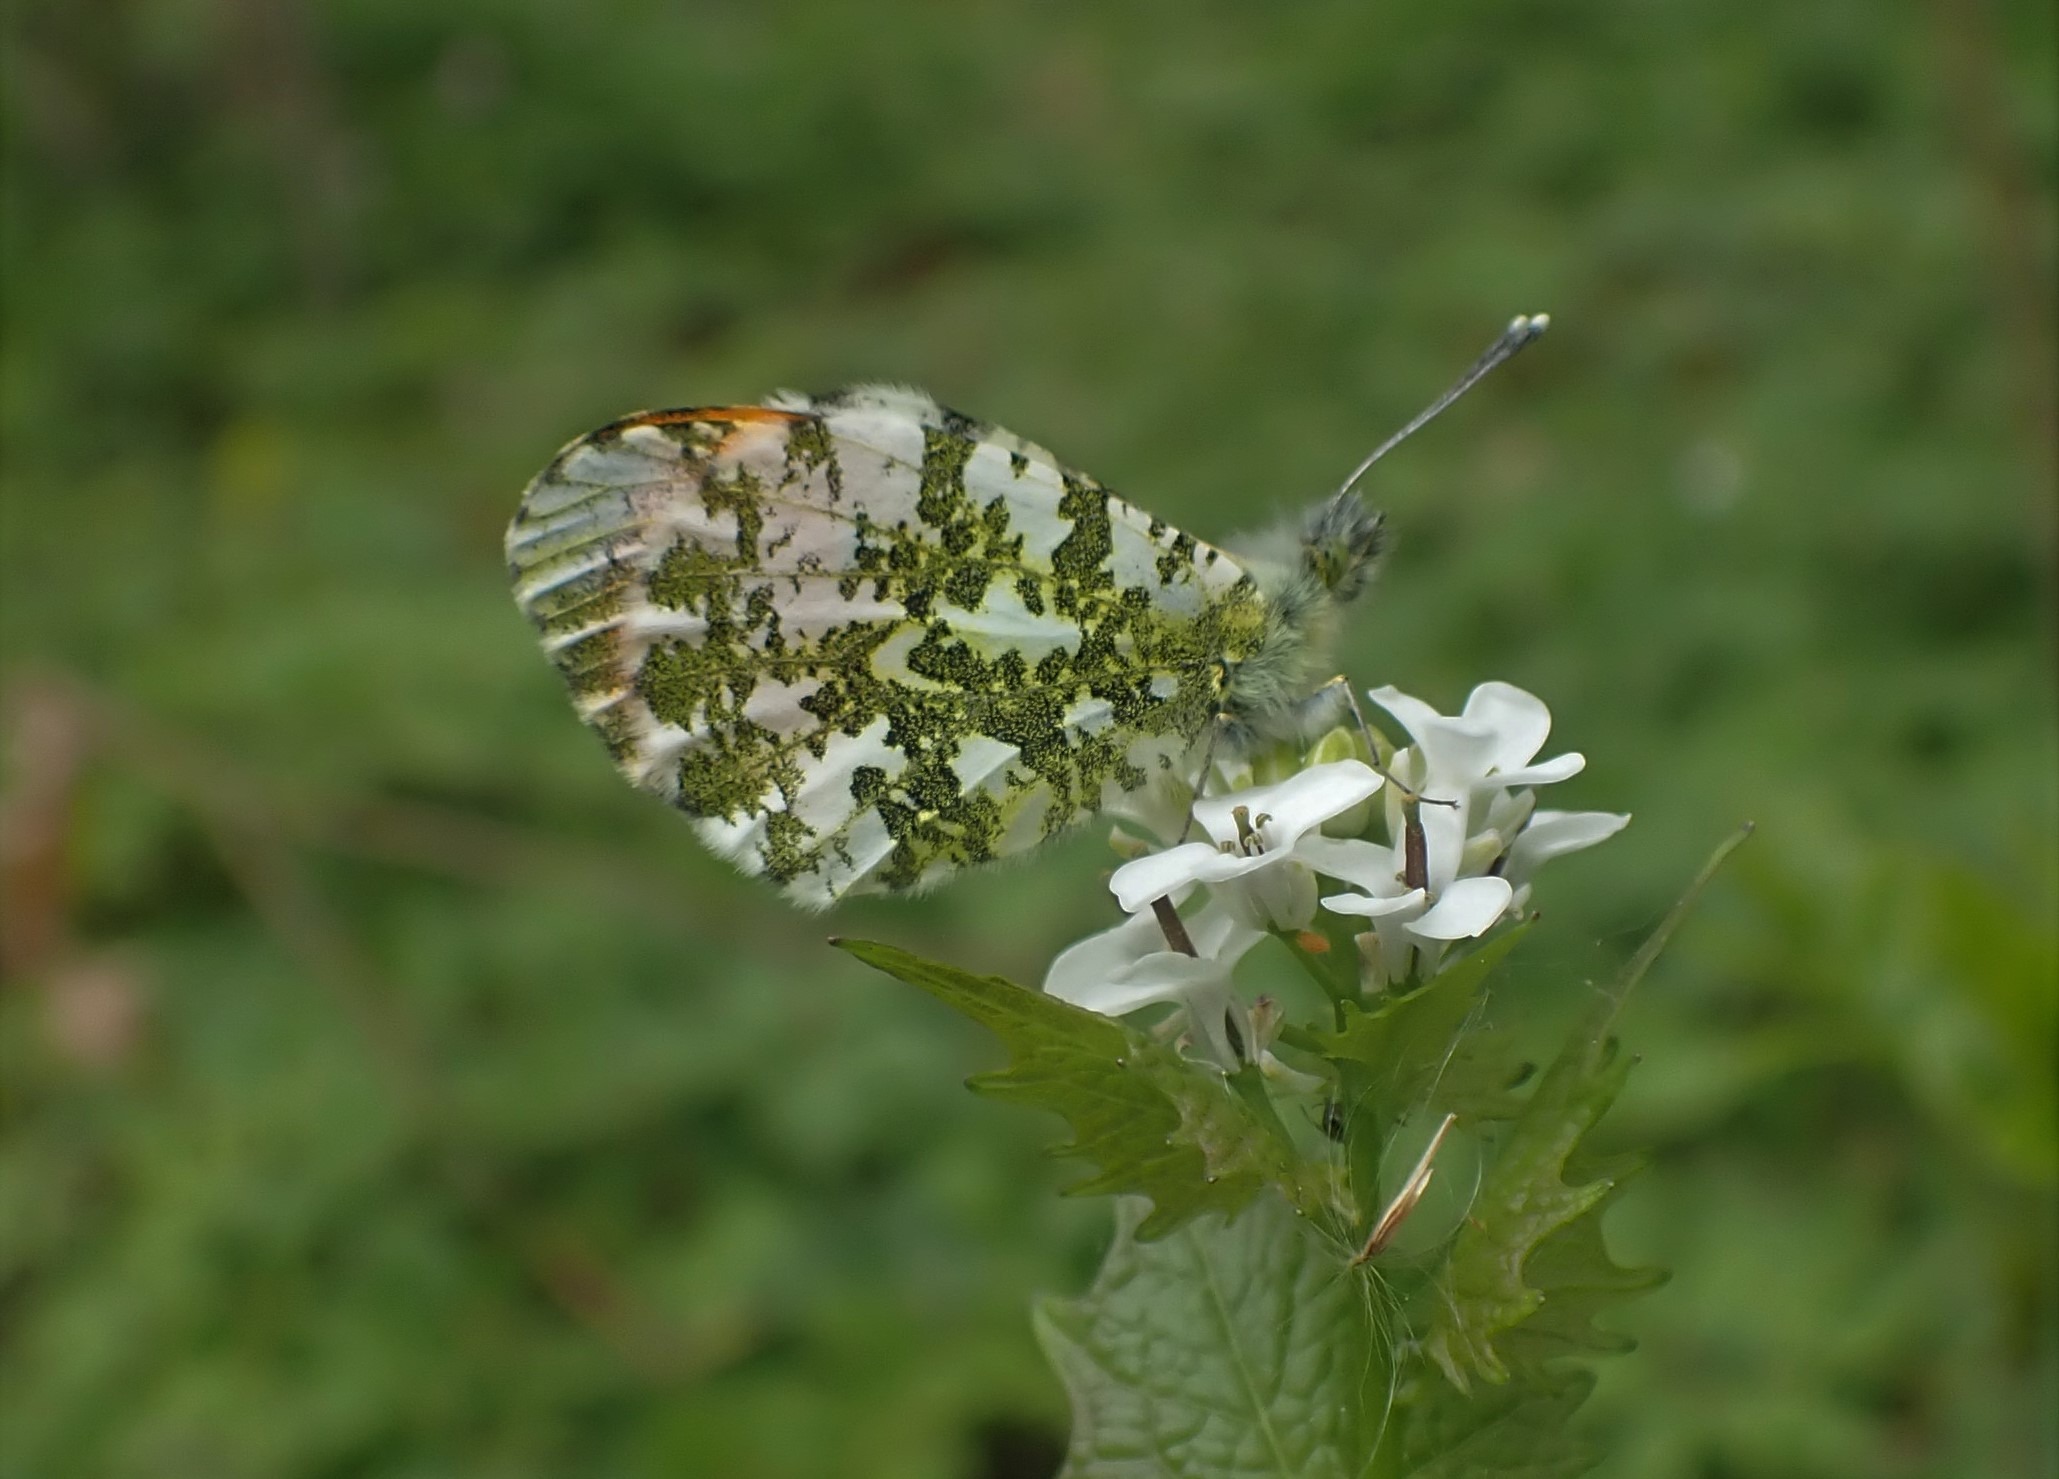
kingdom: Animalia
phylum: Arthropoda
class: Insecta
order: Lepidoptera
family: Pieridae
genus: Anthocharis
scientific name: Anthocharis cardamines
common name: Aurora
